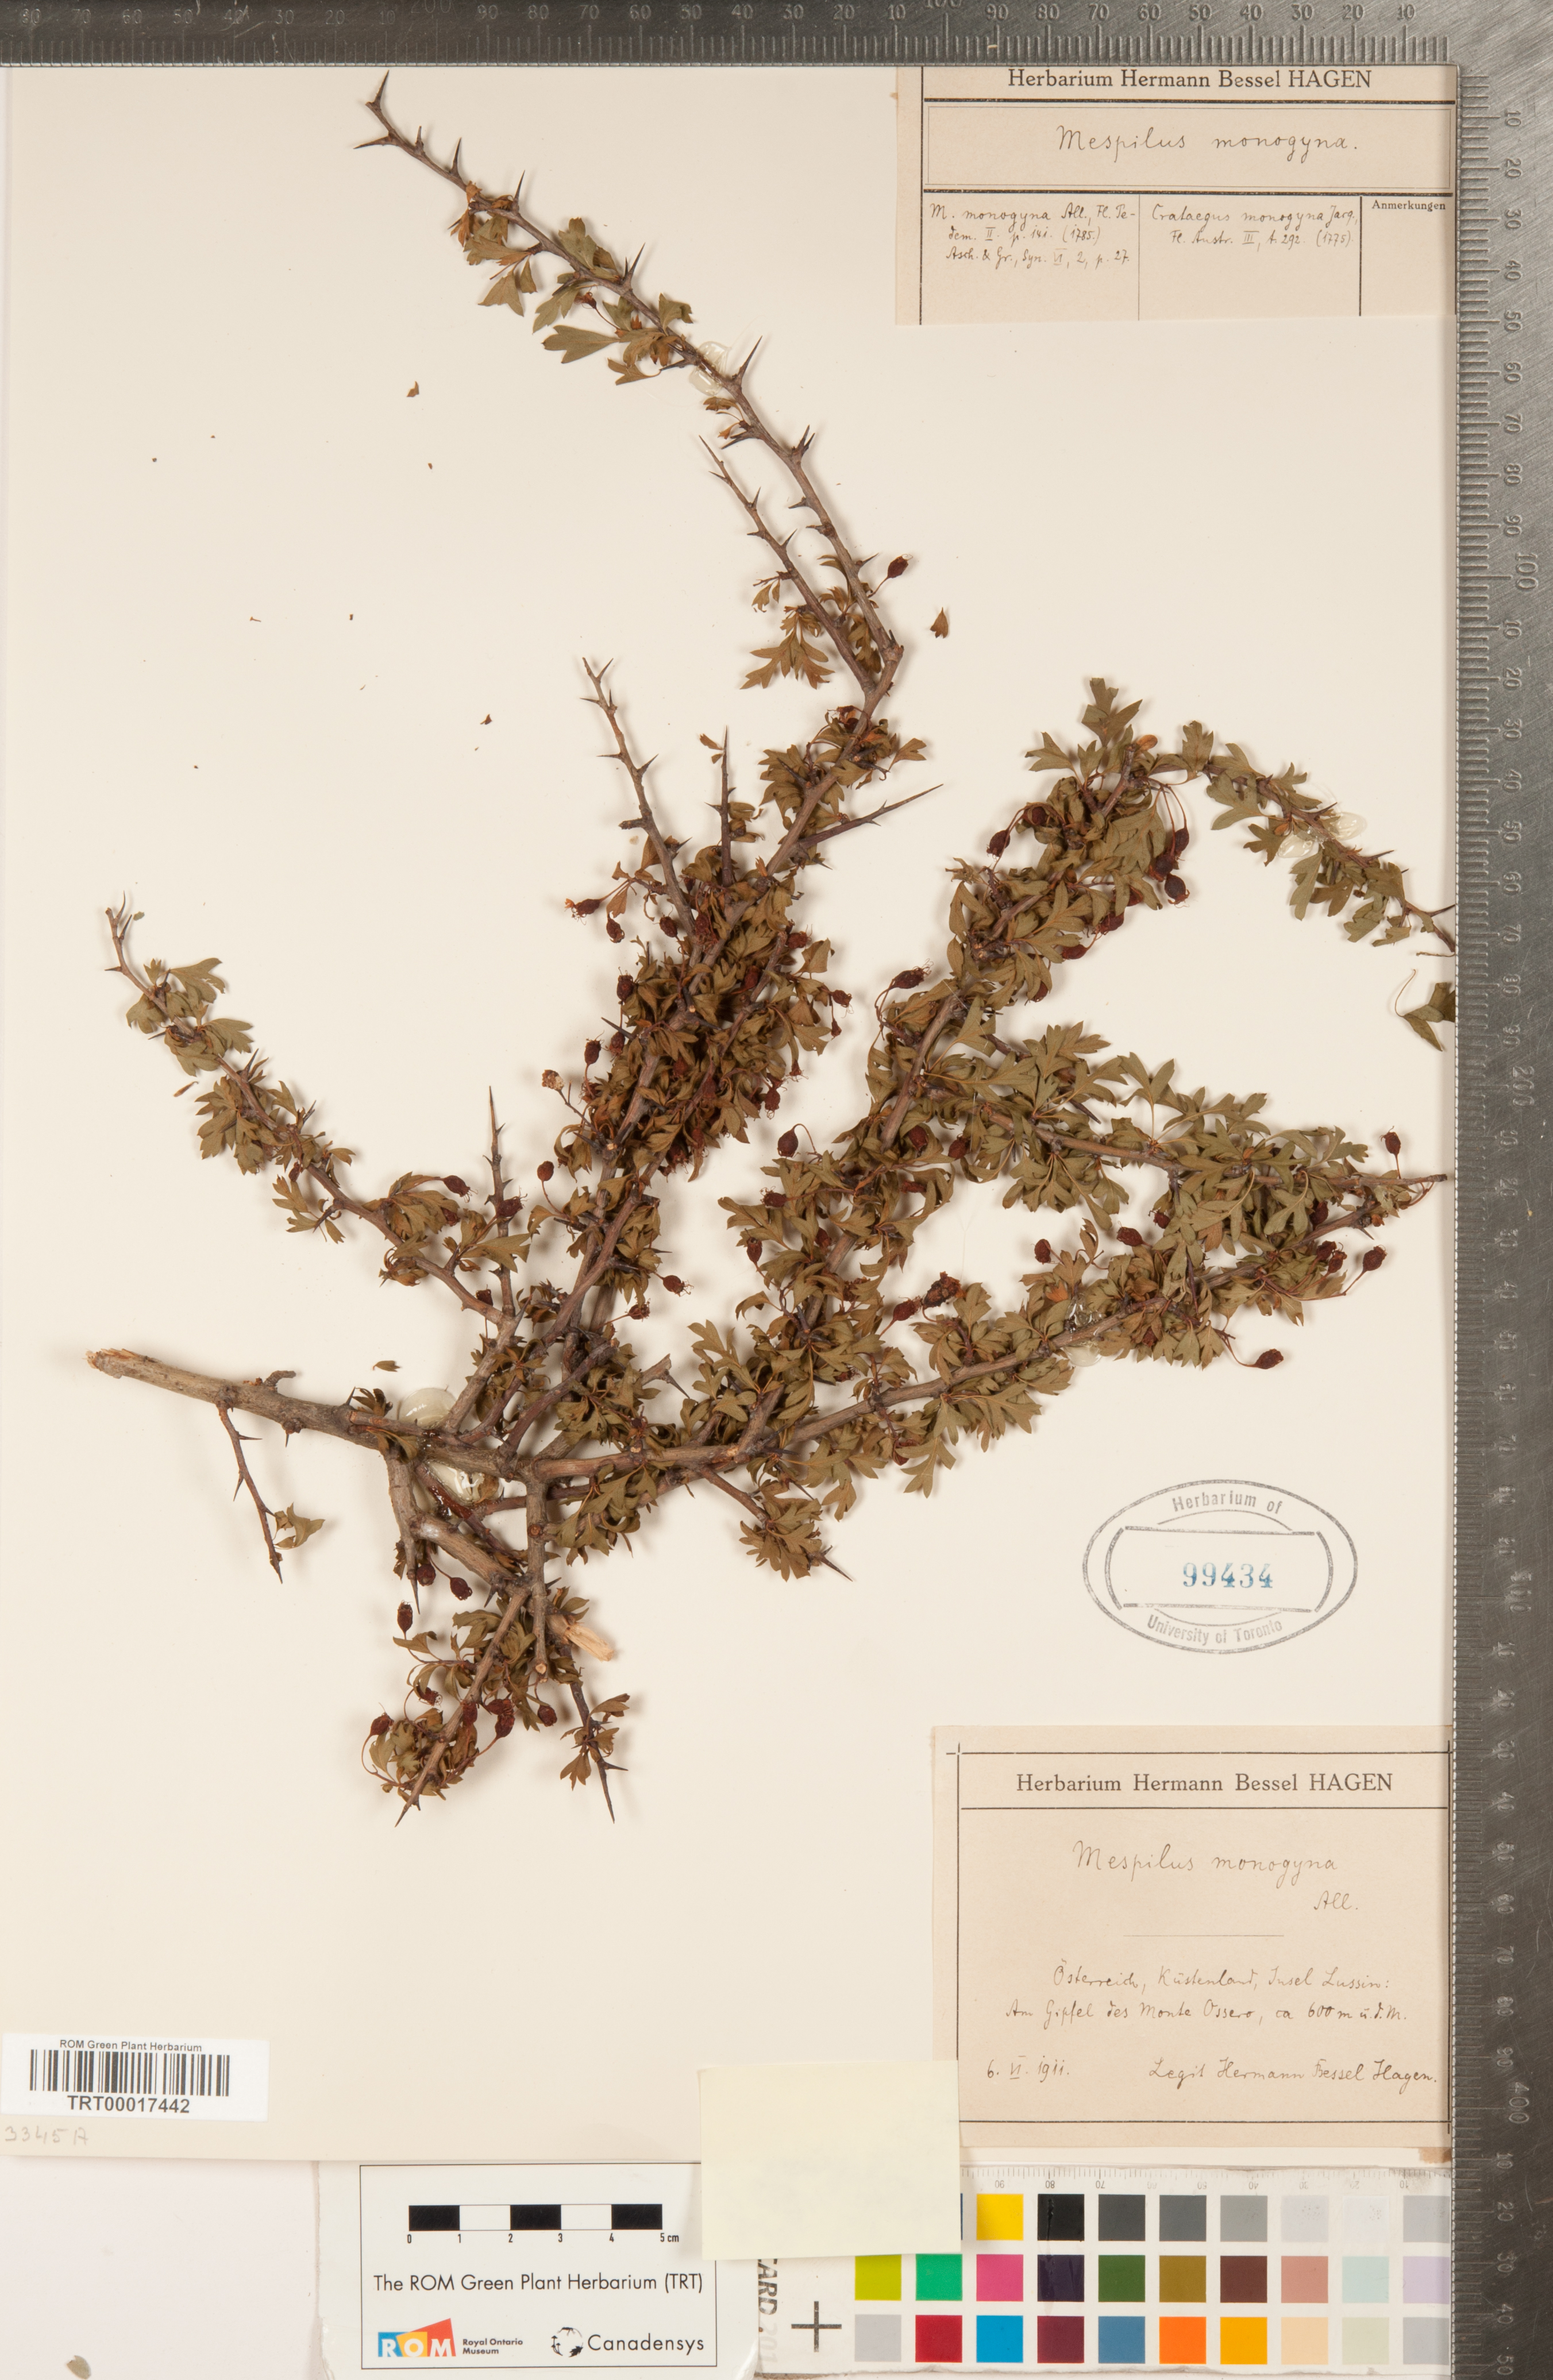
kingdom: Plantae
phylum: Tracheophyta
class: Magnoliopsida
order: Rosales
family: Rosaceae
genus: Crataegus
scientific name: Crataegus monogyna
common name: Hawthorn
